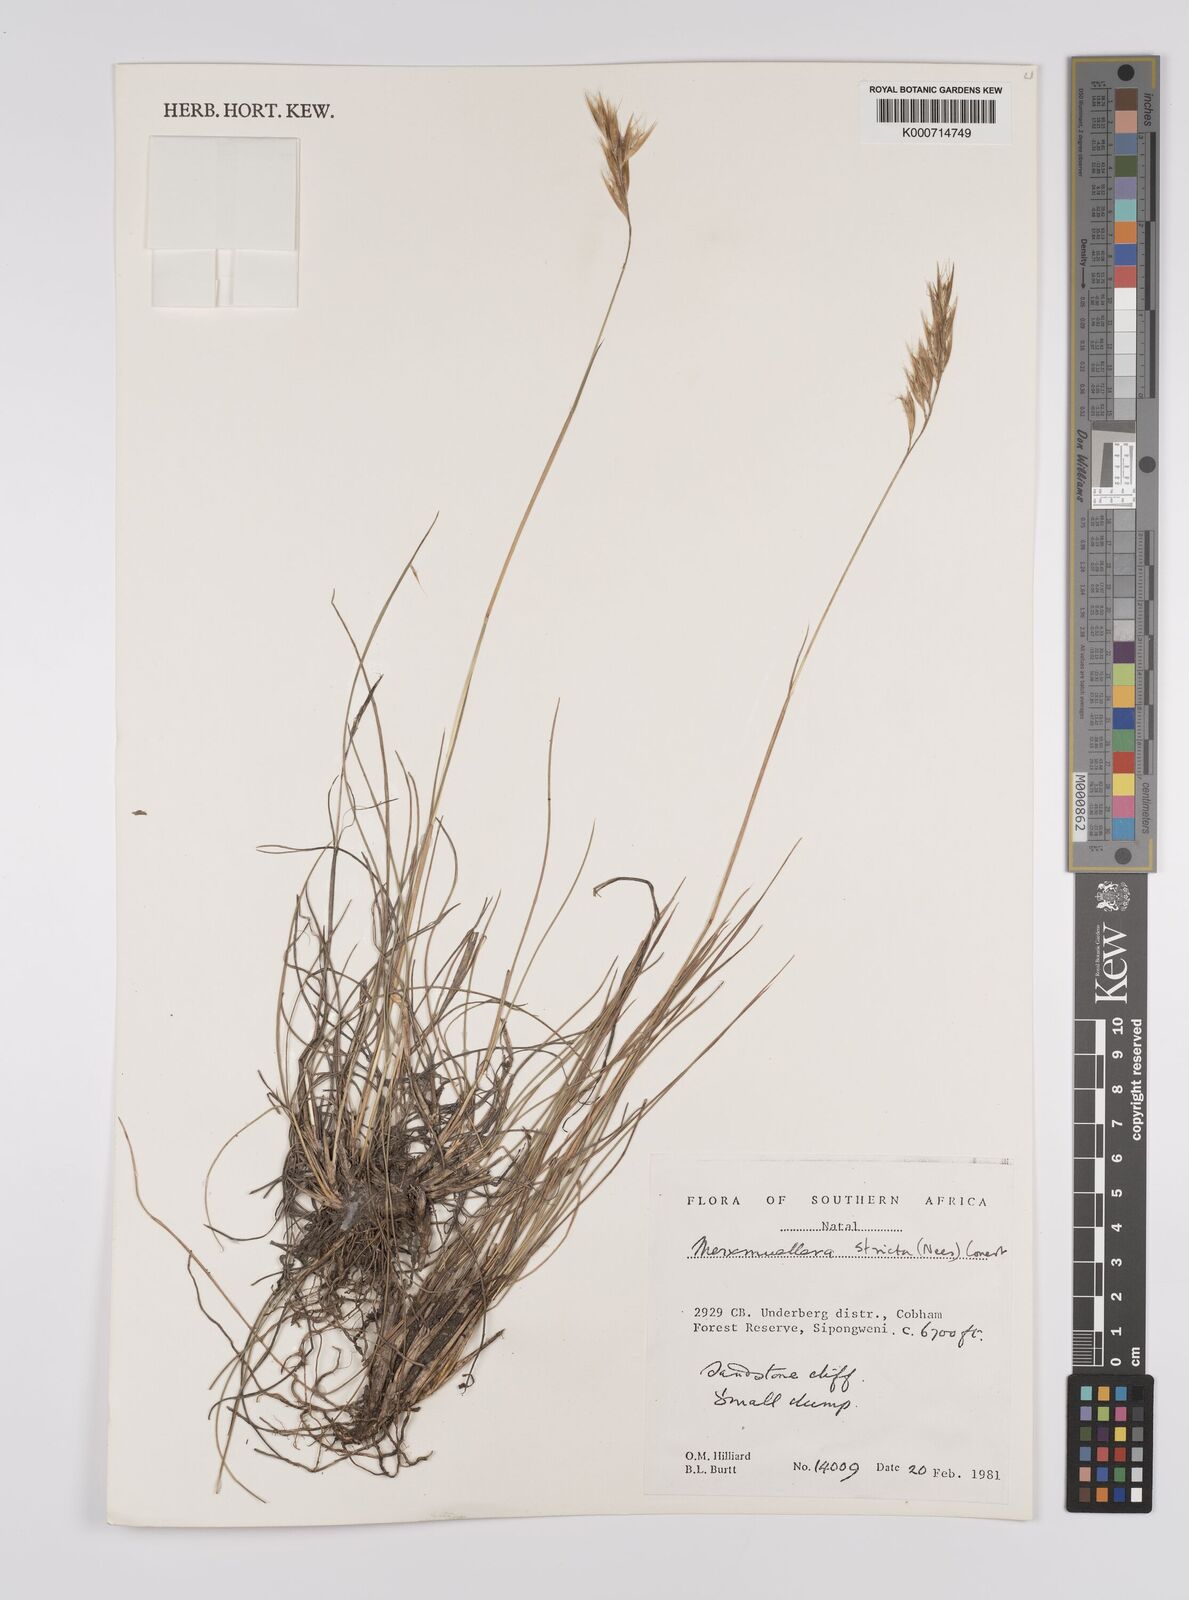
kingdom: Plantae
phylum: Tracheophyta
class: Liliopsida
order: Poales
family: Poaceae
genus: Rytidosperma
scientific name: Rytidosperma
